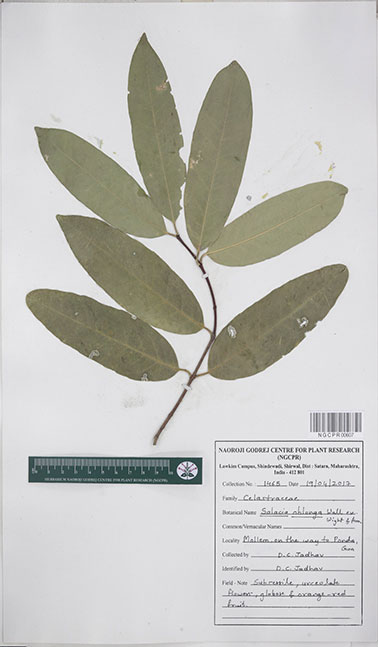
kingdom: Plantae
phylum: Tracheophyta
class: Magnoliopsida
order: Celastrales
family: Celastraceae
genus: Salacia
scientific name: Salacia oblonga
